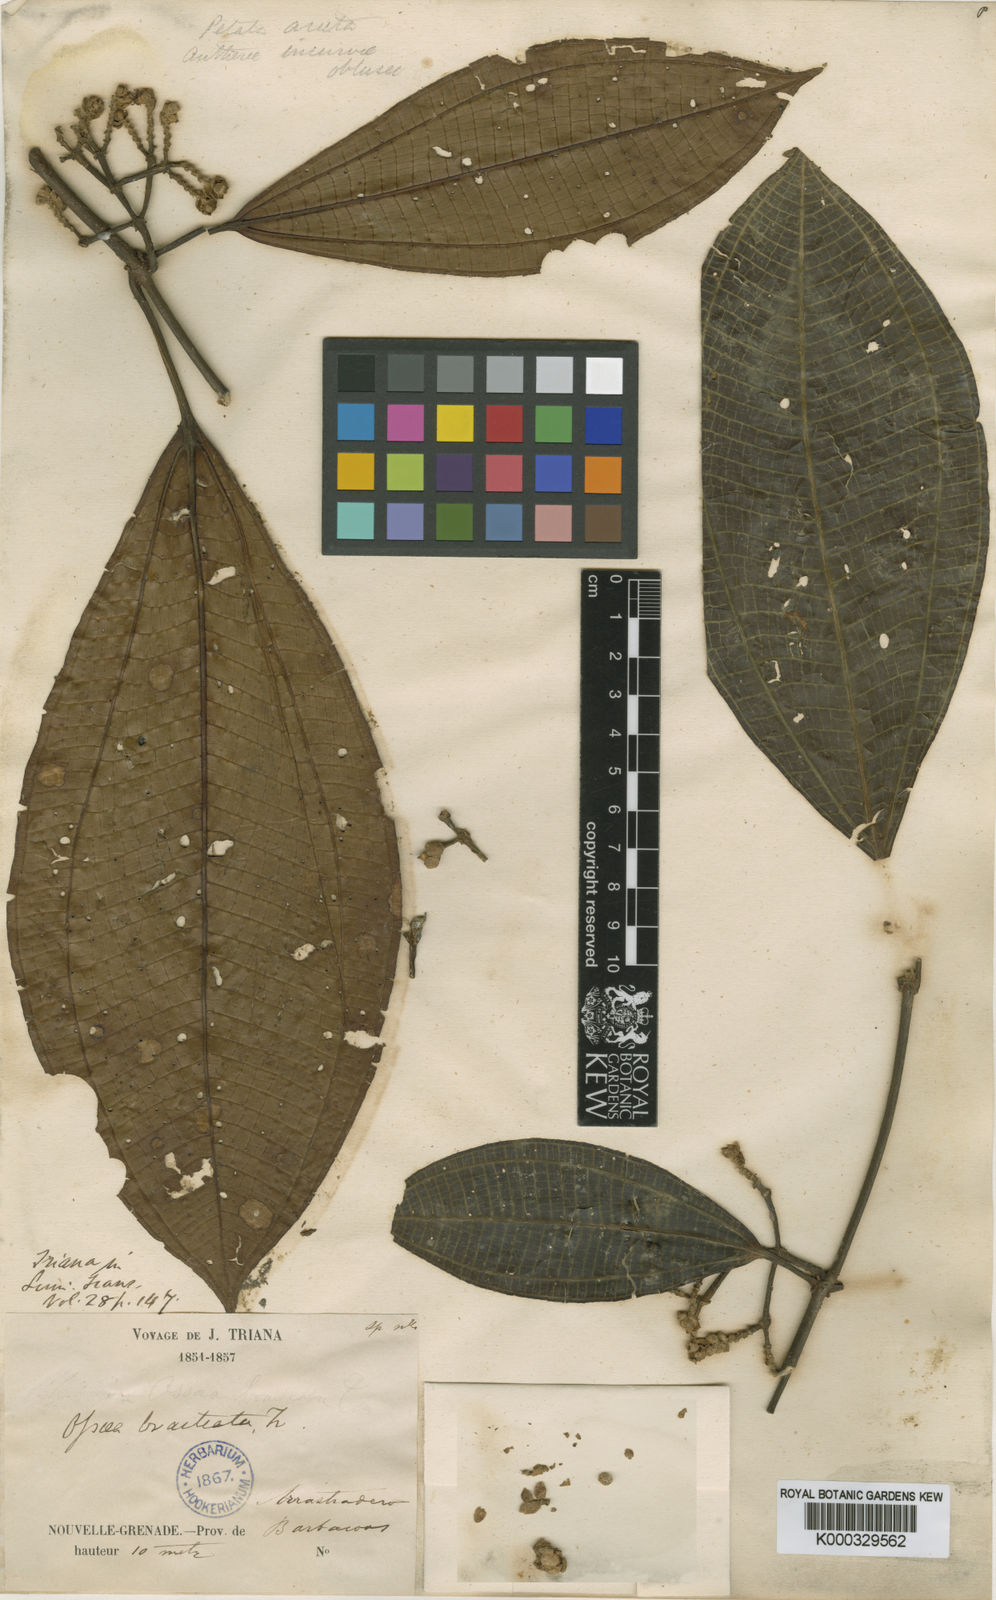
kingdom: Plantae
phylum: Tracheophyta
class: Magnoliopsida
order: Myrtales
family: Melastomataceae
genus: Miconia
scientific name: Miconia bractiflora
